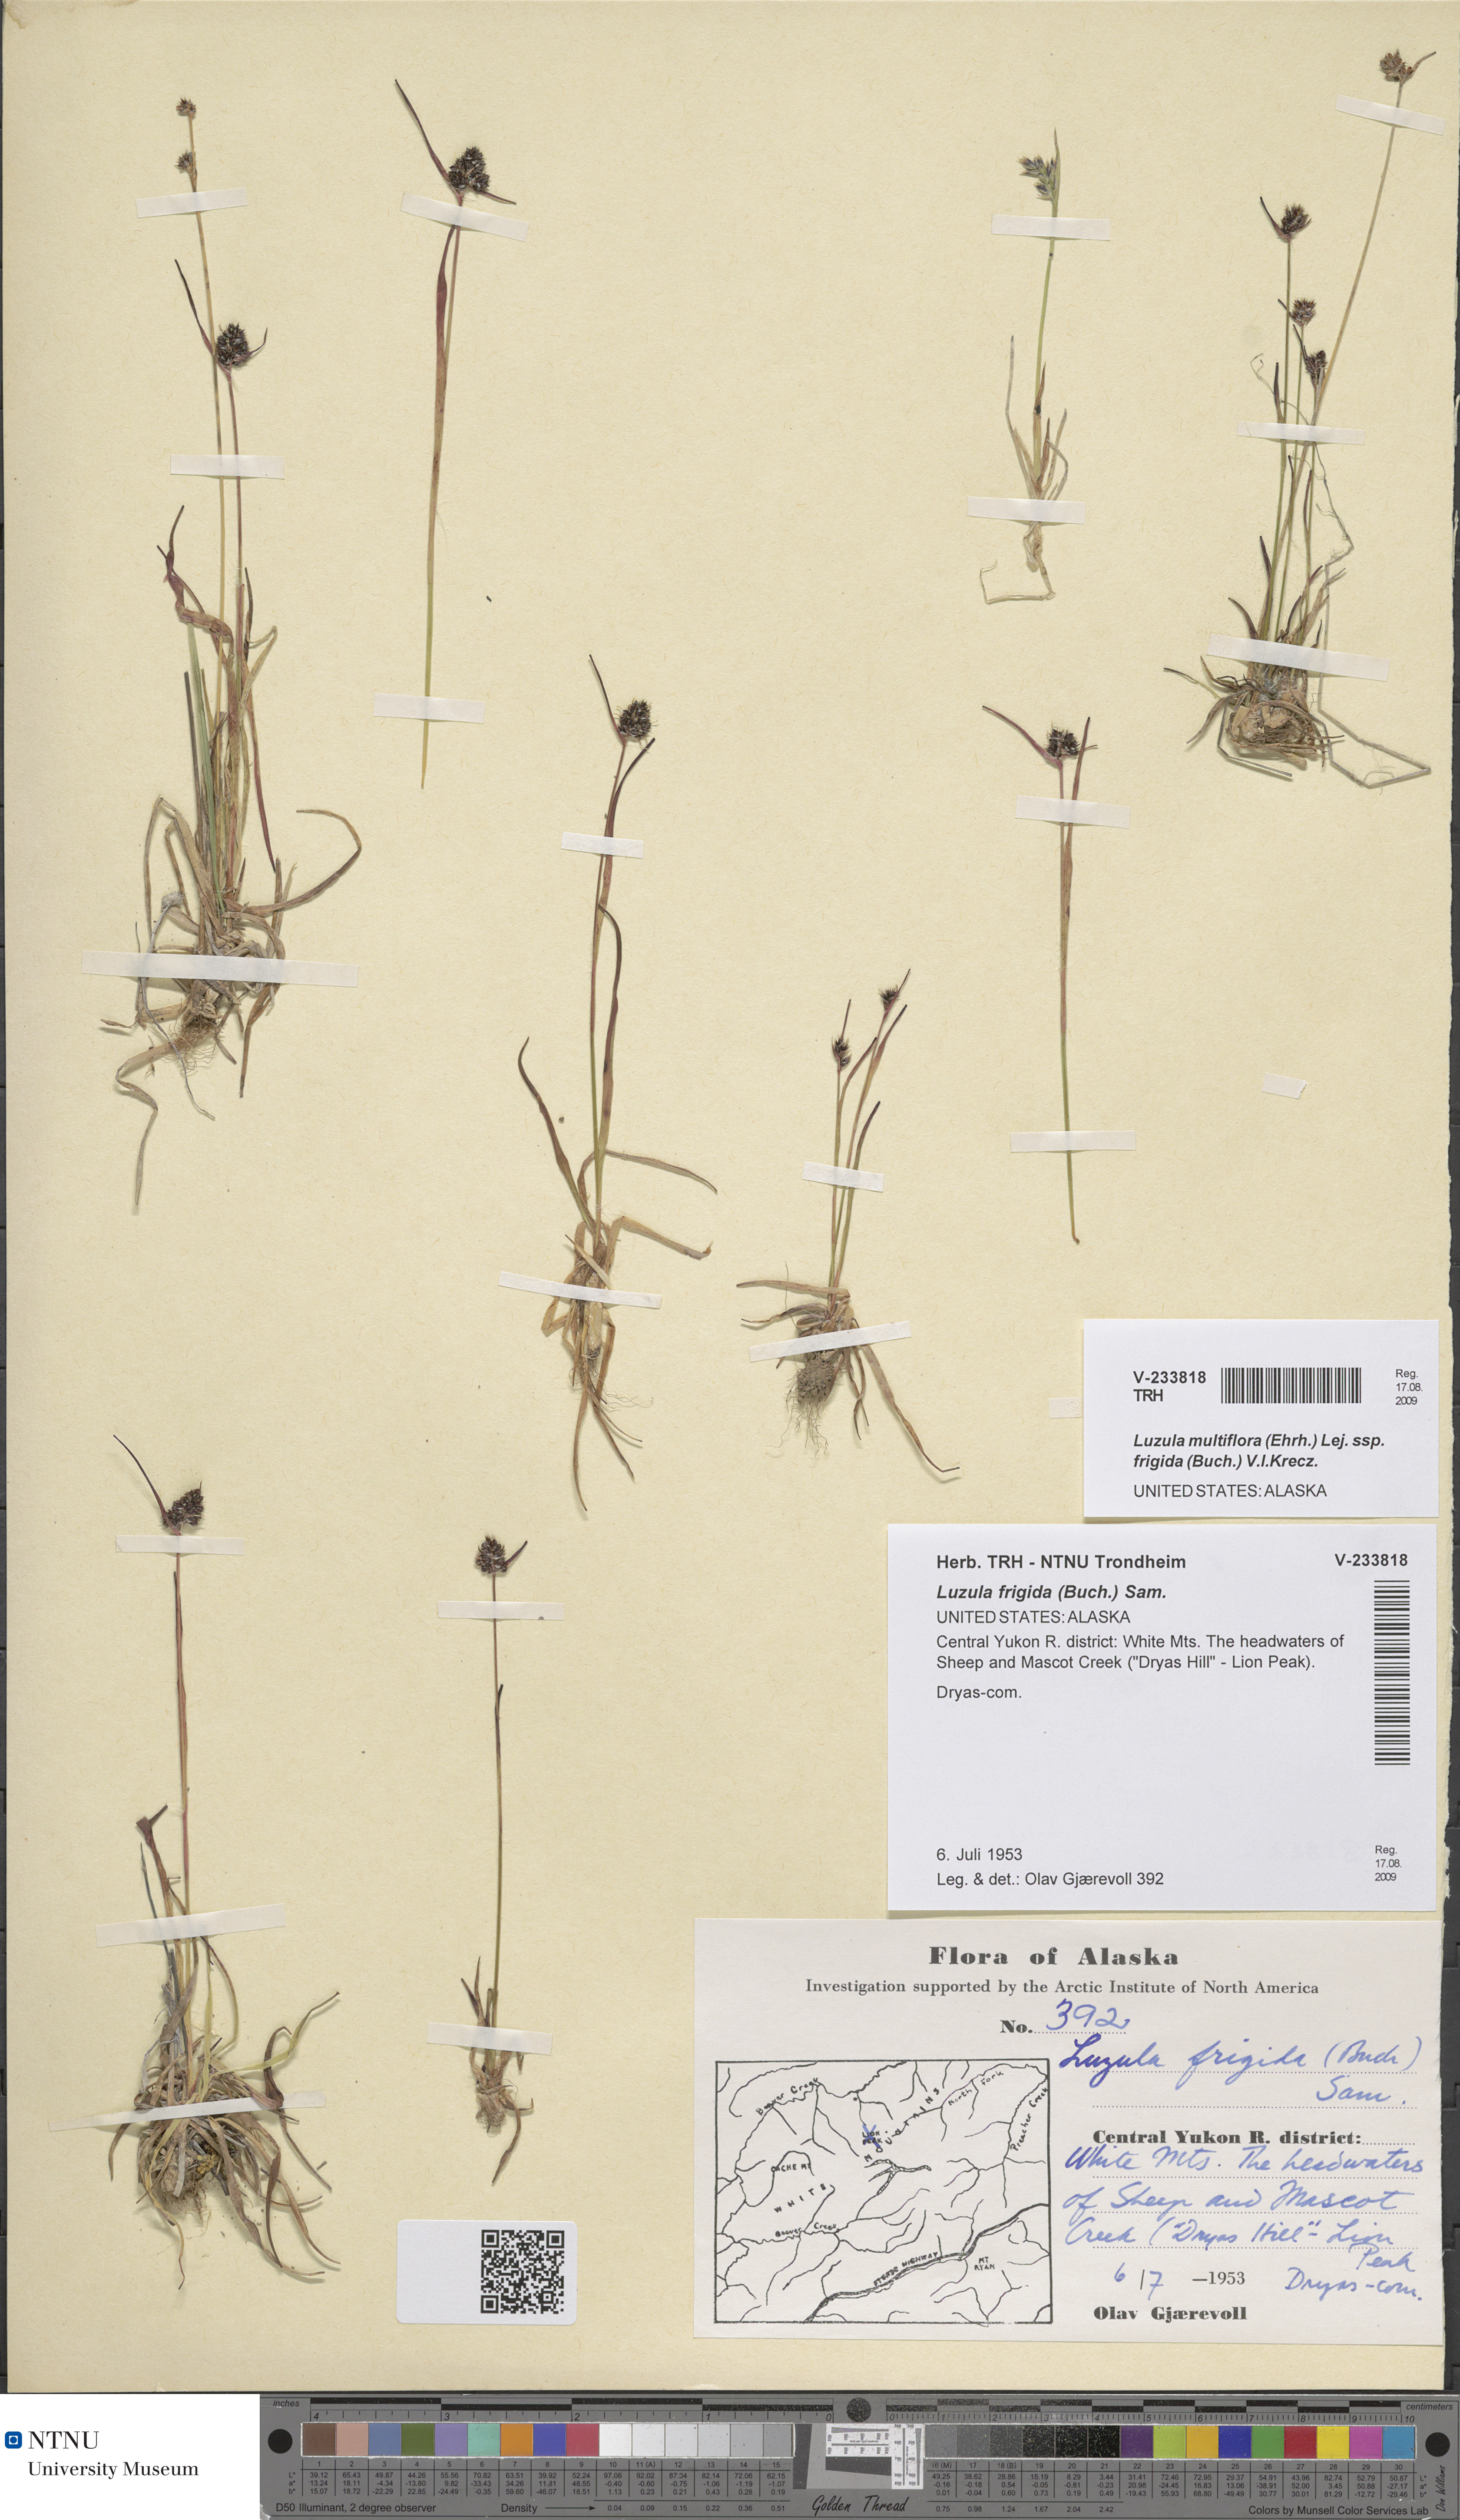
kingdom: Plantae
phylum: Tracheophyta
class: Liliopsida
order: Poales
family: Juncaceae
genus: Luzula
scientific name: Luzula multiflora
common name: Heath wood-rush
